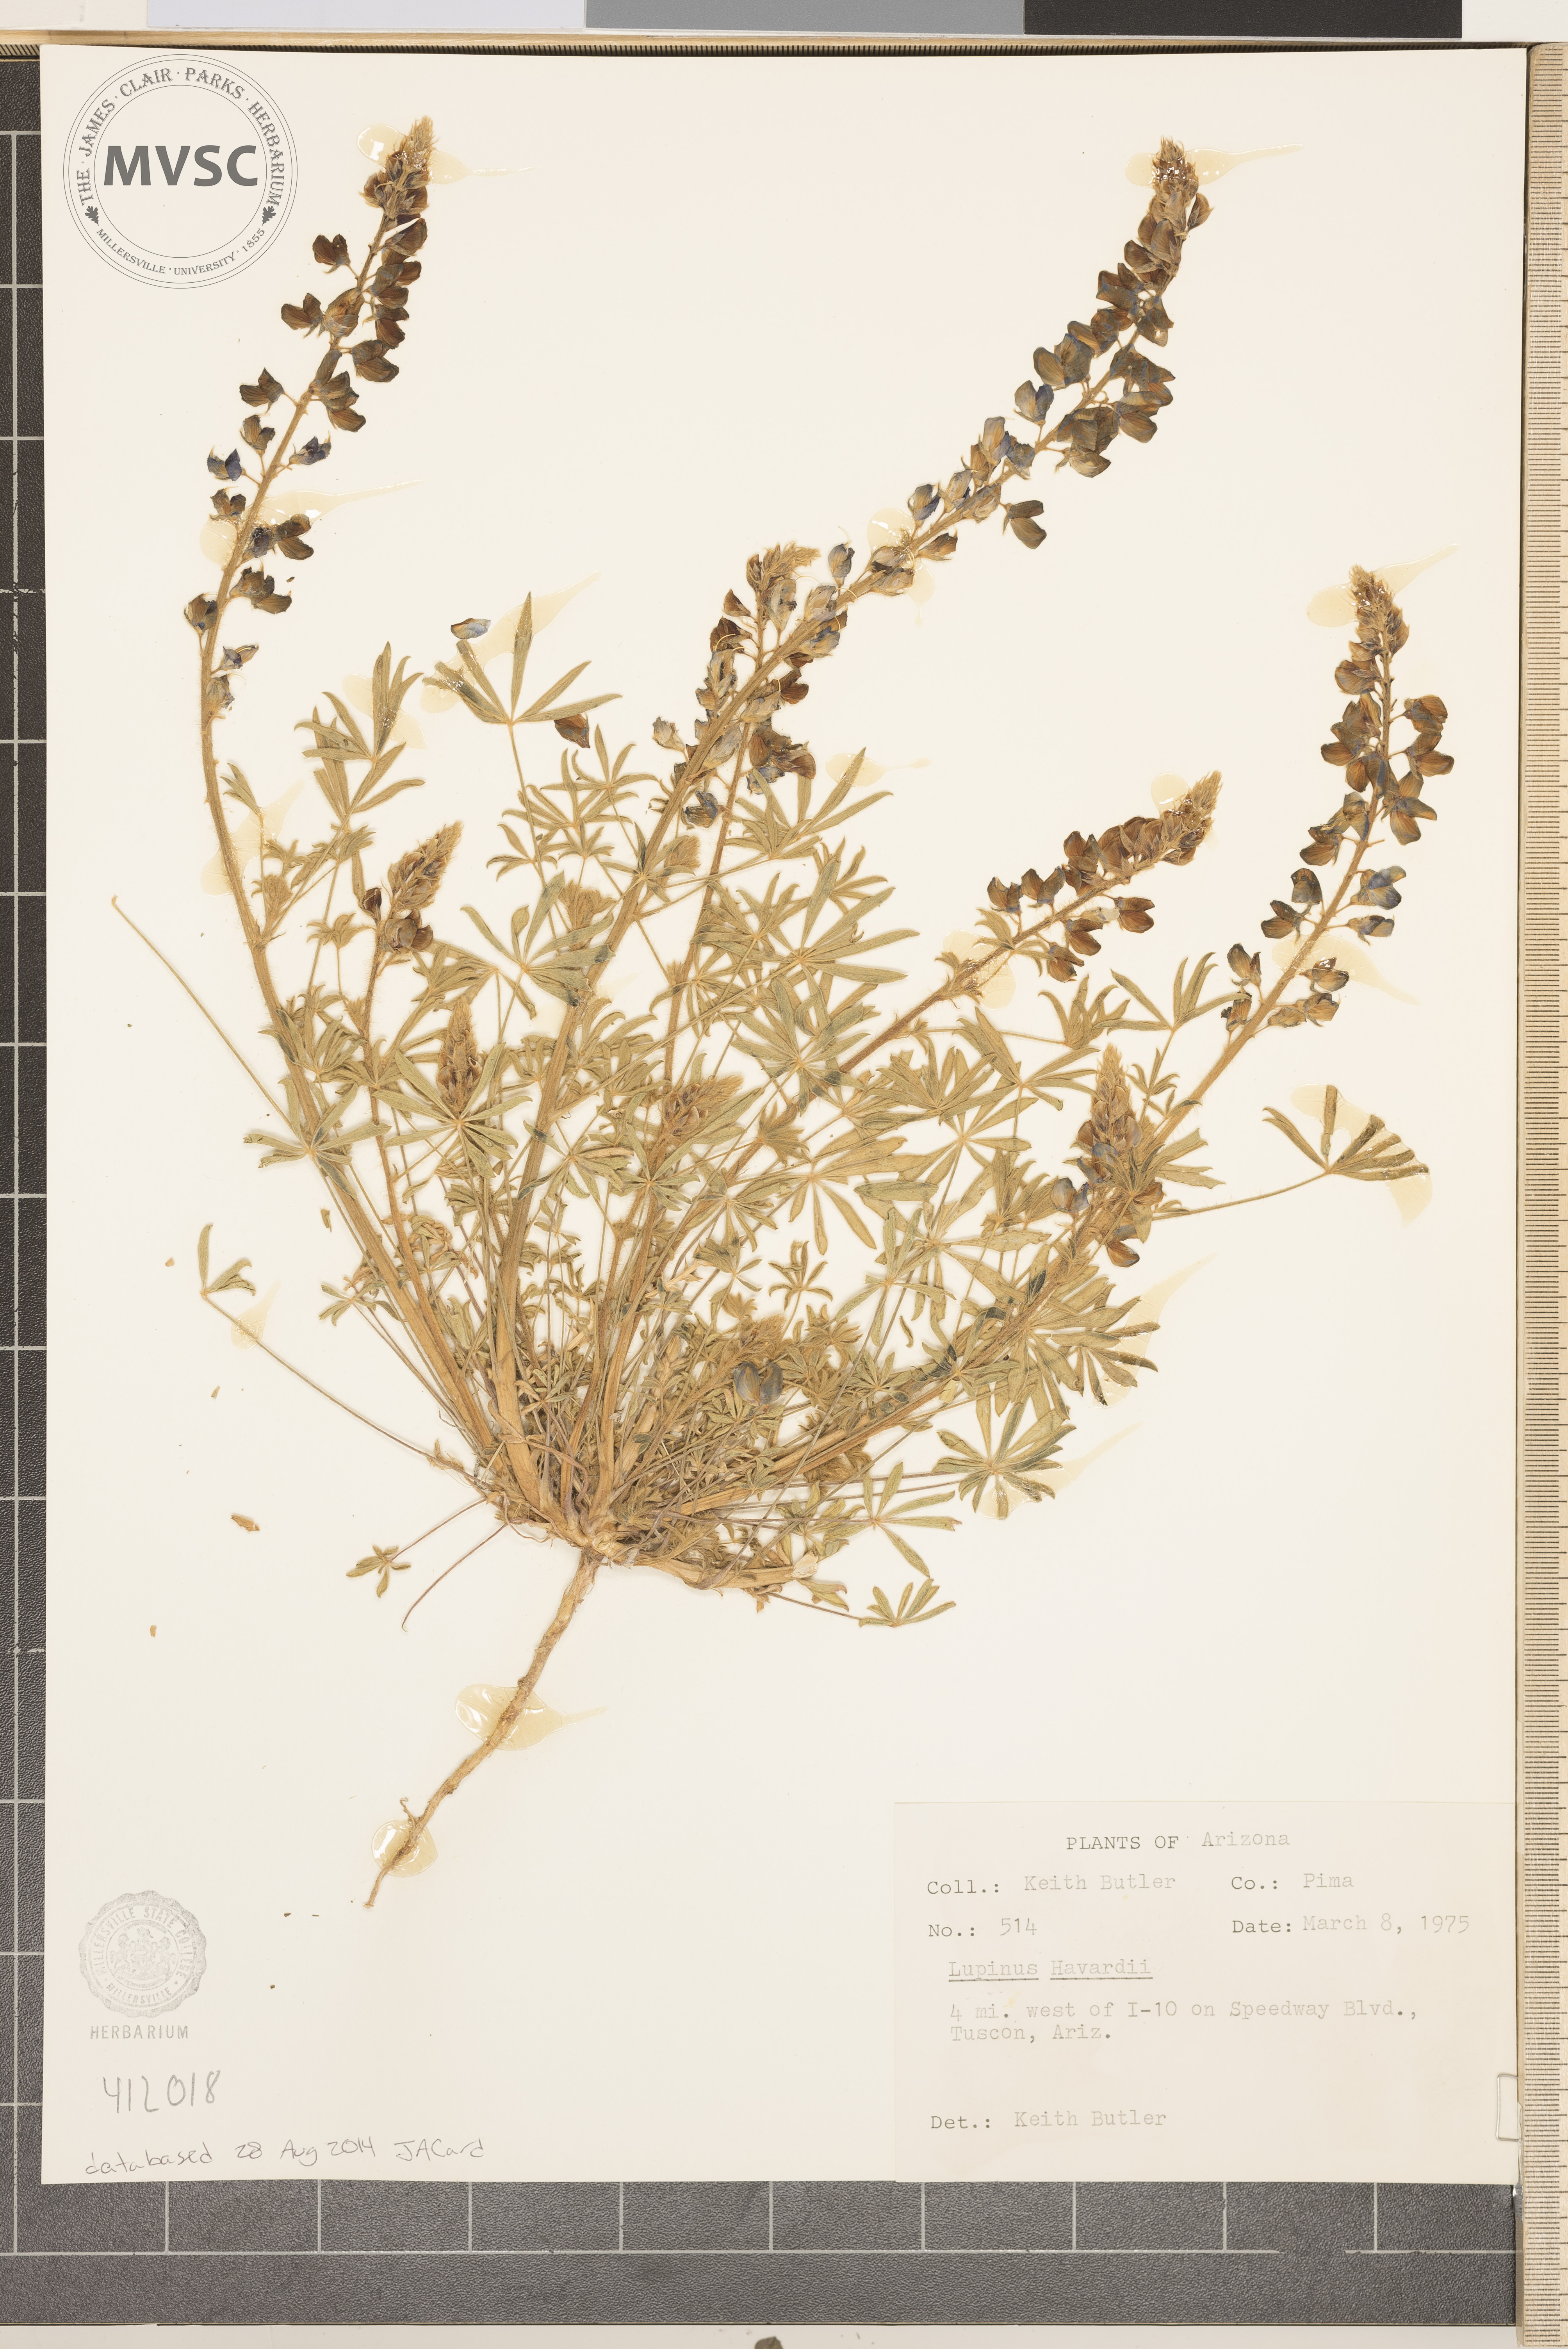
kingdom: Plantae
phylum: Tracheophyta
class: Magnoliopsida
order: Fabales
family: Fabaceae
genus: Lupinus
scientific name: Lupinus argenteus
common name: Silvery lupine
